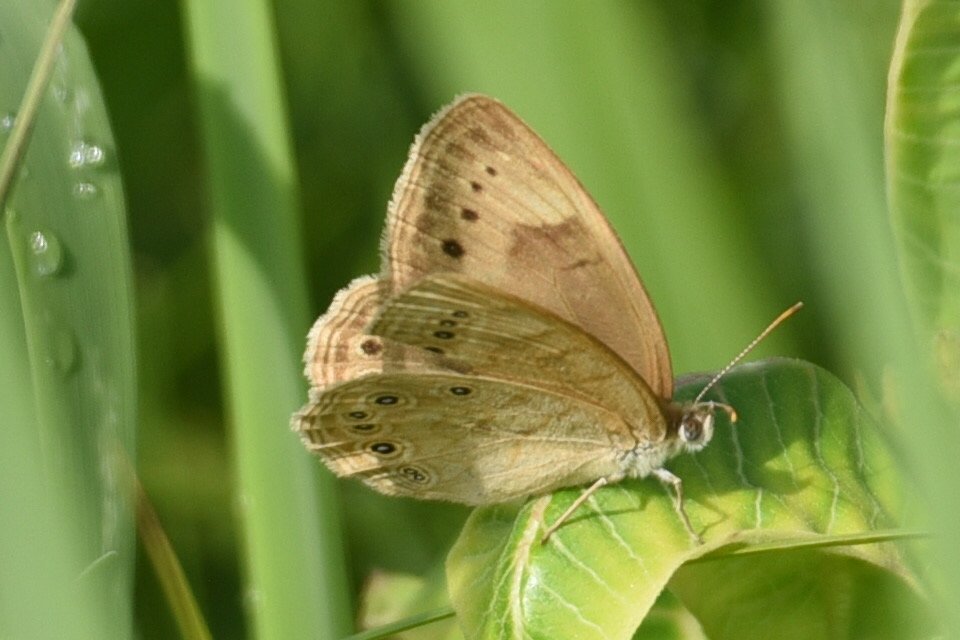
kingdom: Animalia
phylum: Arthropoda
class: Insecta
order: Lepidoptera
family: Nymphalidae
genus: Lethe
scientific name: Lethe eurydice
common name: Eyed Brown
